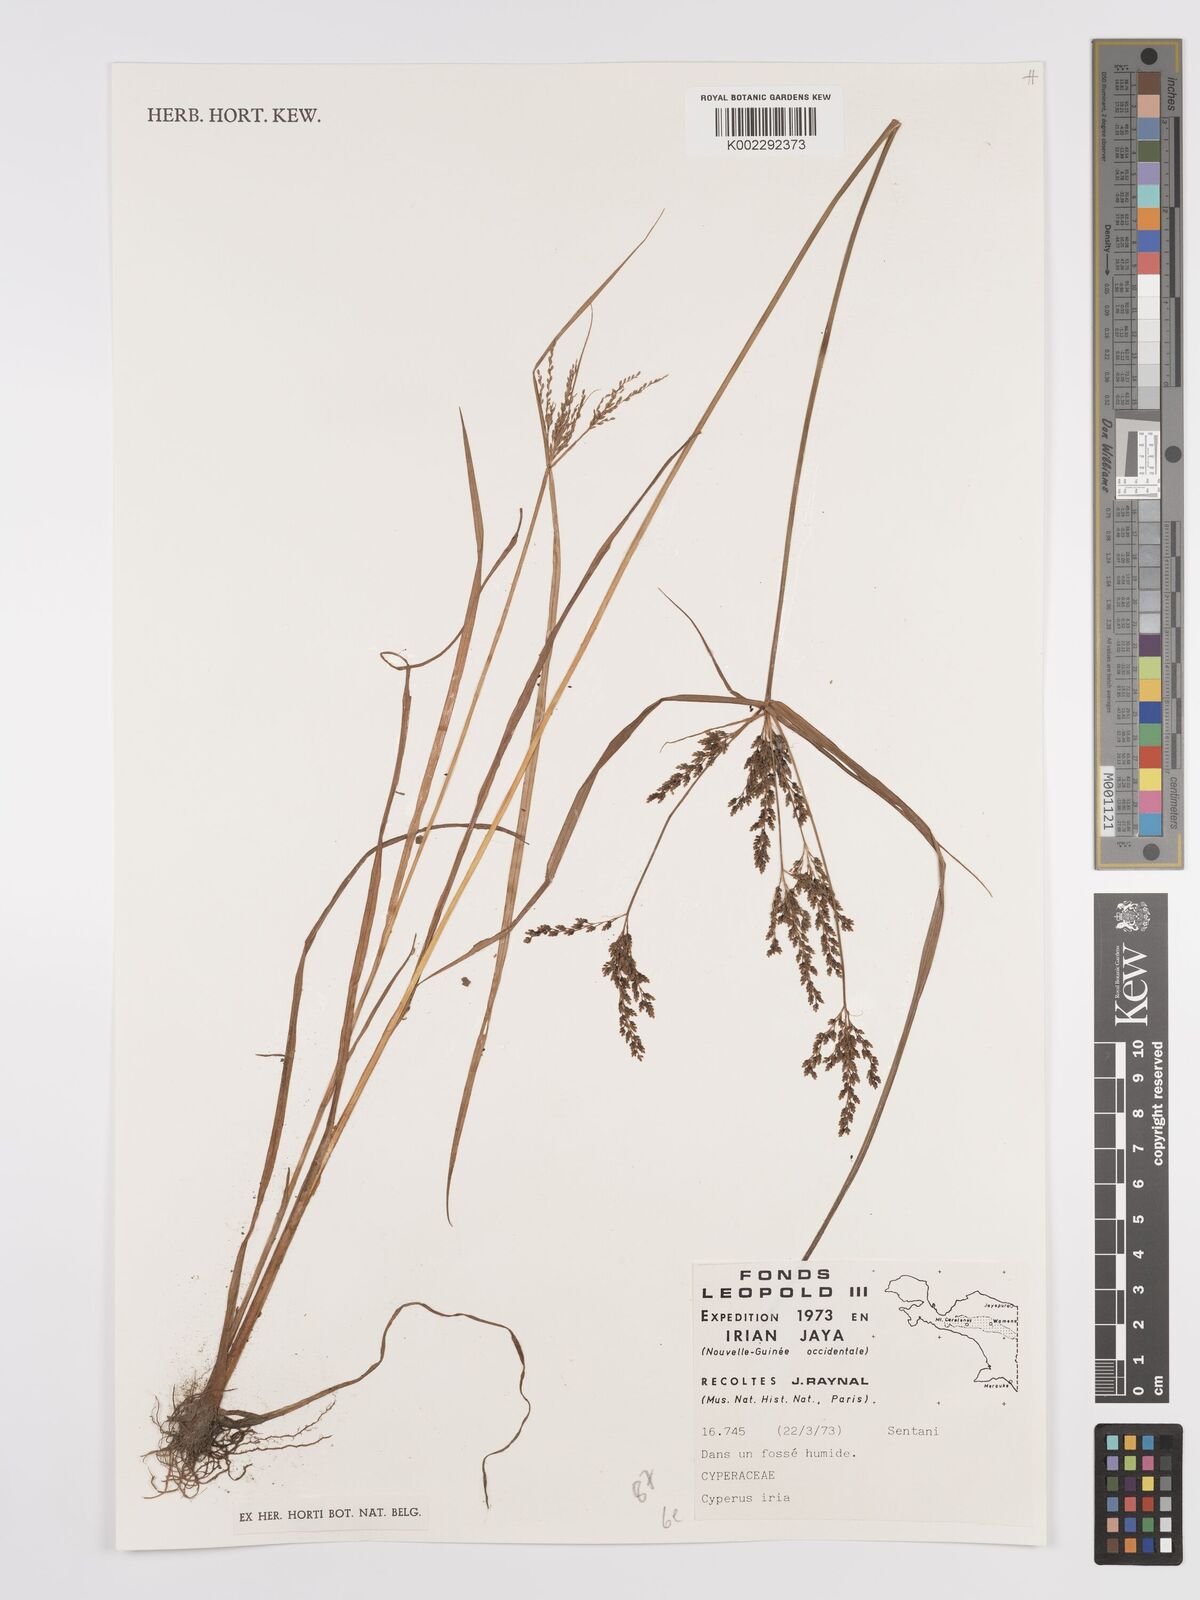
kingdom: Plantae
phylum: Tracheophyta
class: Liliopsida
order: Poales
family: Cyperaceae
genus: Cyperus
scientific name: Cyperus iria
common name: Ricefield flatsedge
